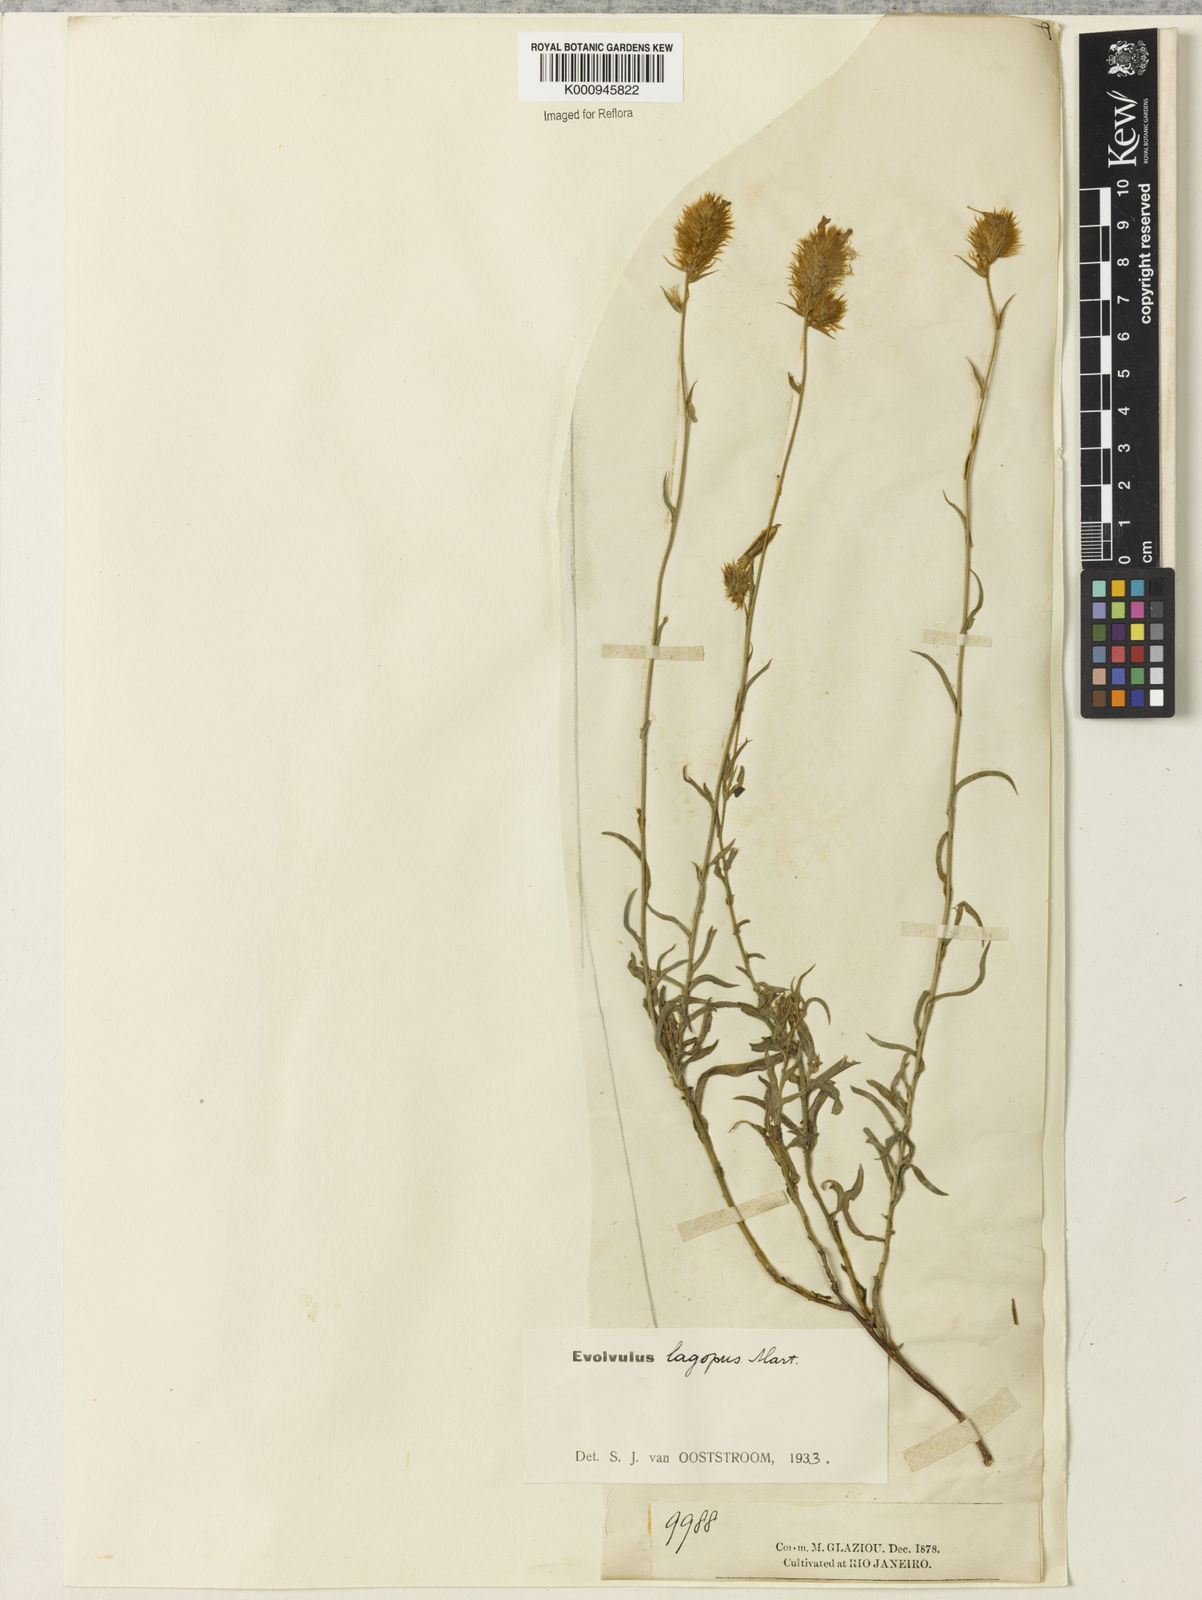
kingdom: Plantae
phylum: Tracheophyta
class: Magnoliopsida
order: Solanales
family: Convolvulaceae
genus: Evolvulus
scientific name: Evolvulus lagopus
